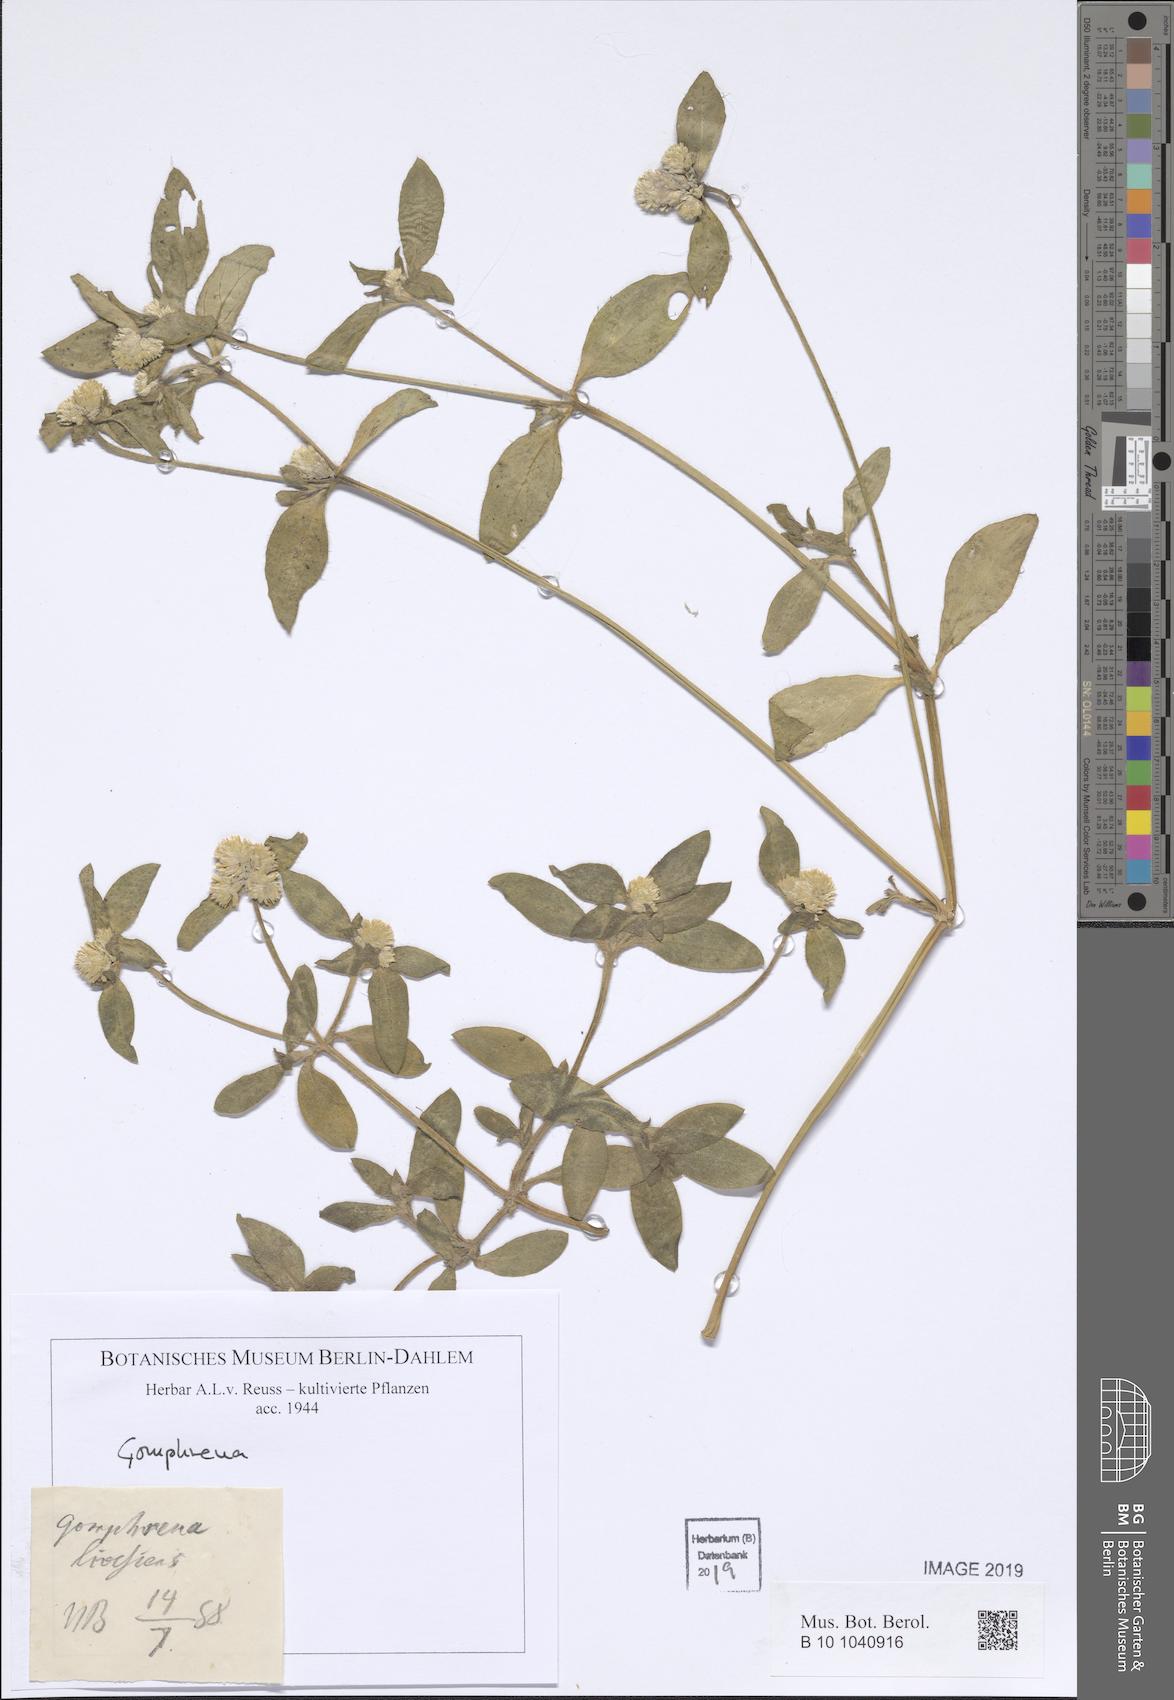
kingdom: Plantae
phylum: Tracheophyta
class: Magnoliopsida
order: Caryophyllales
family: Amaranthaceae
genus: Gomphrena
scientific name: Gomphrena
